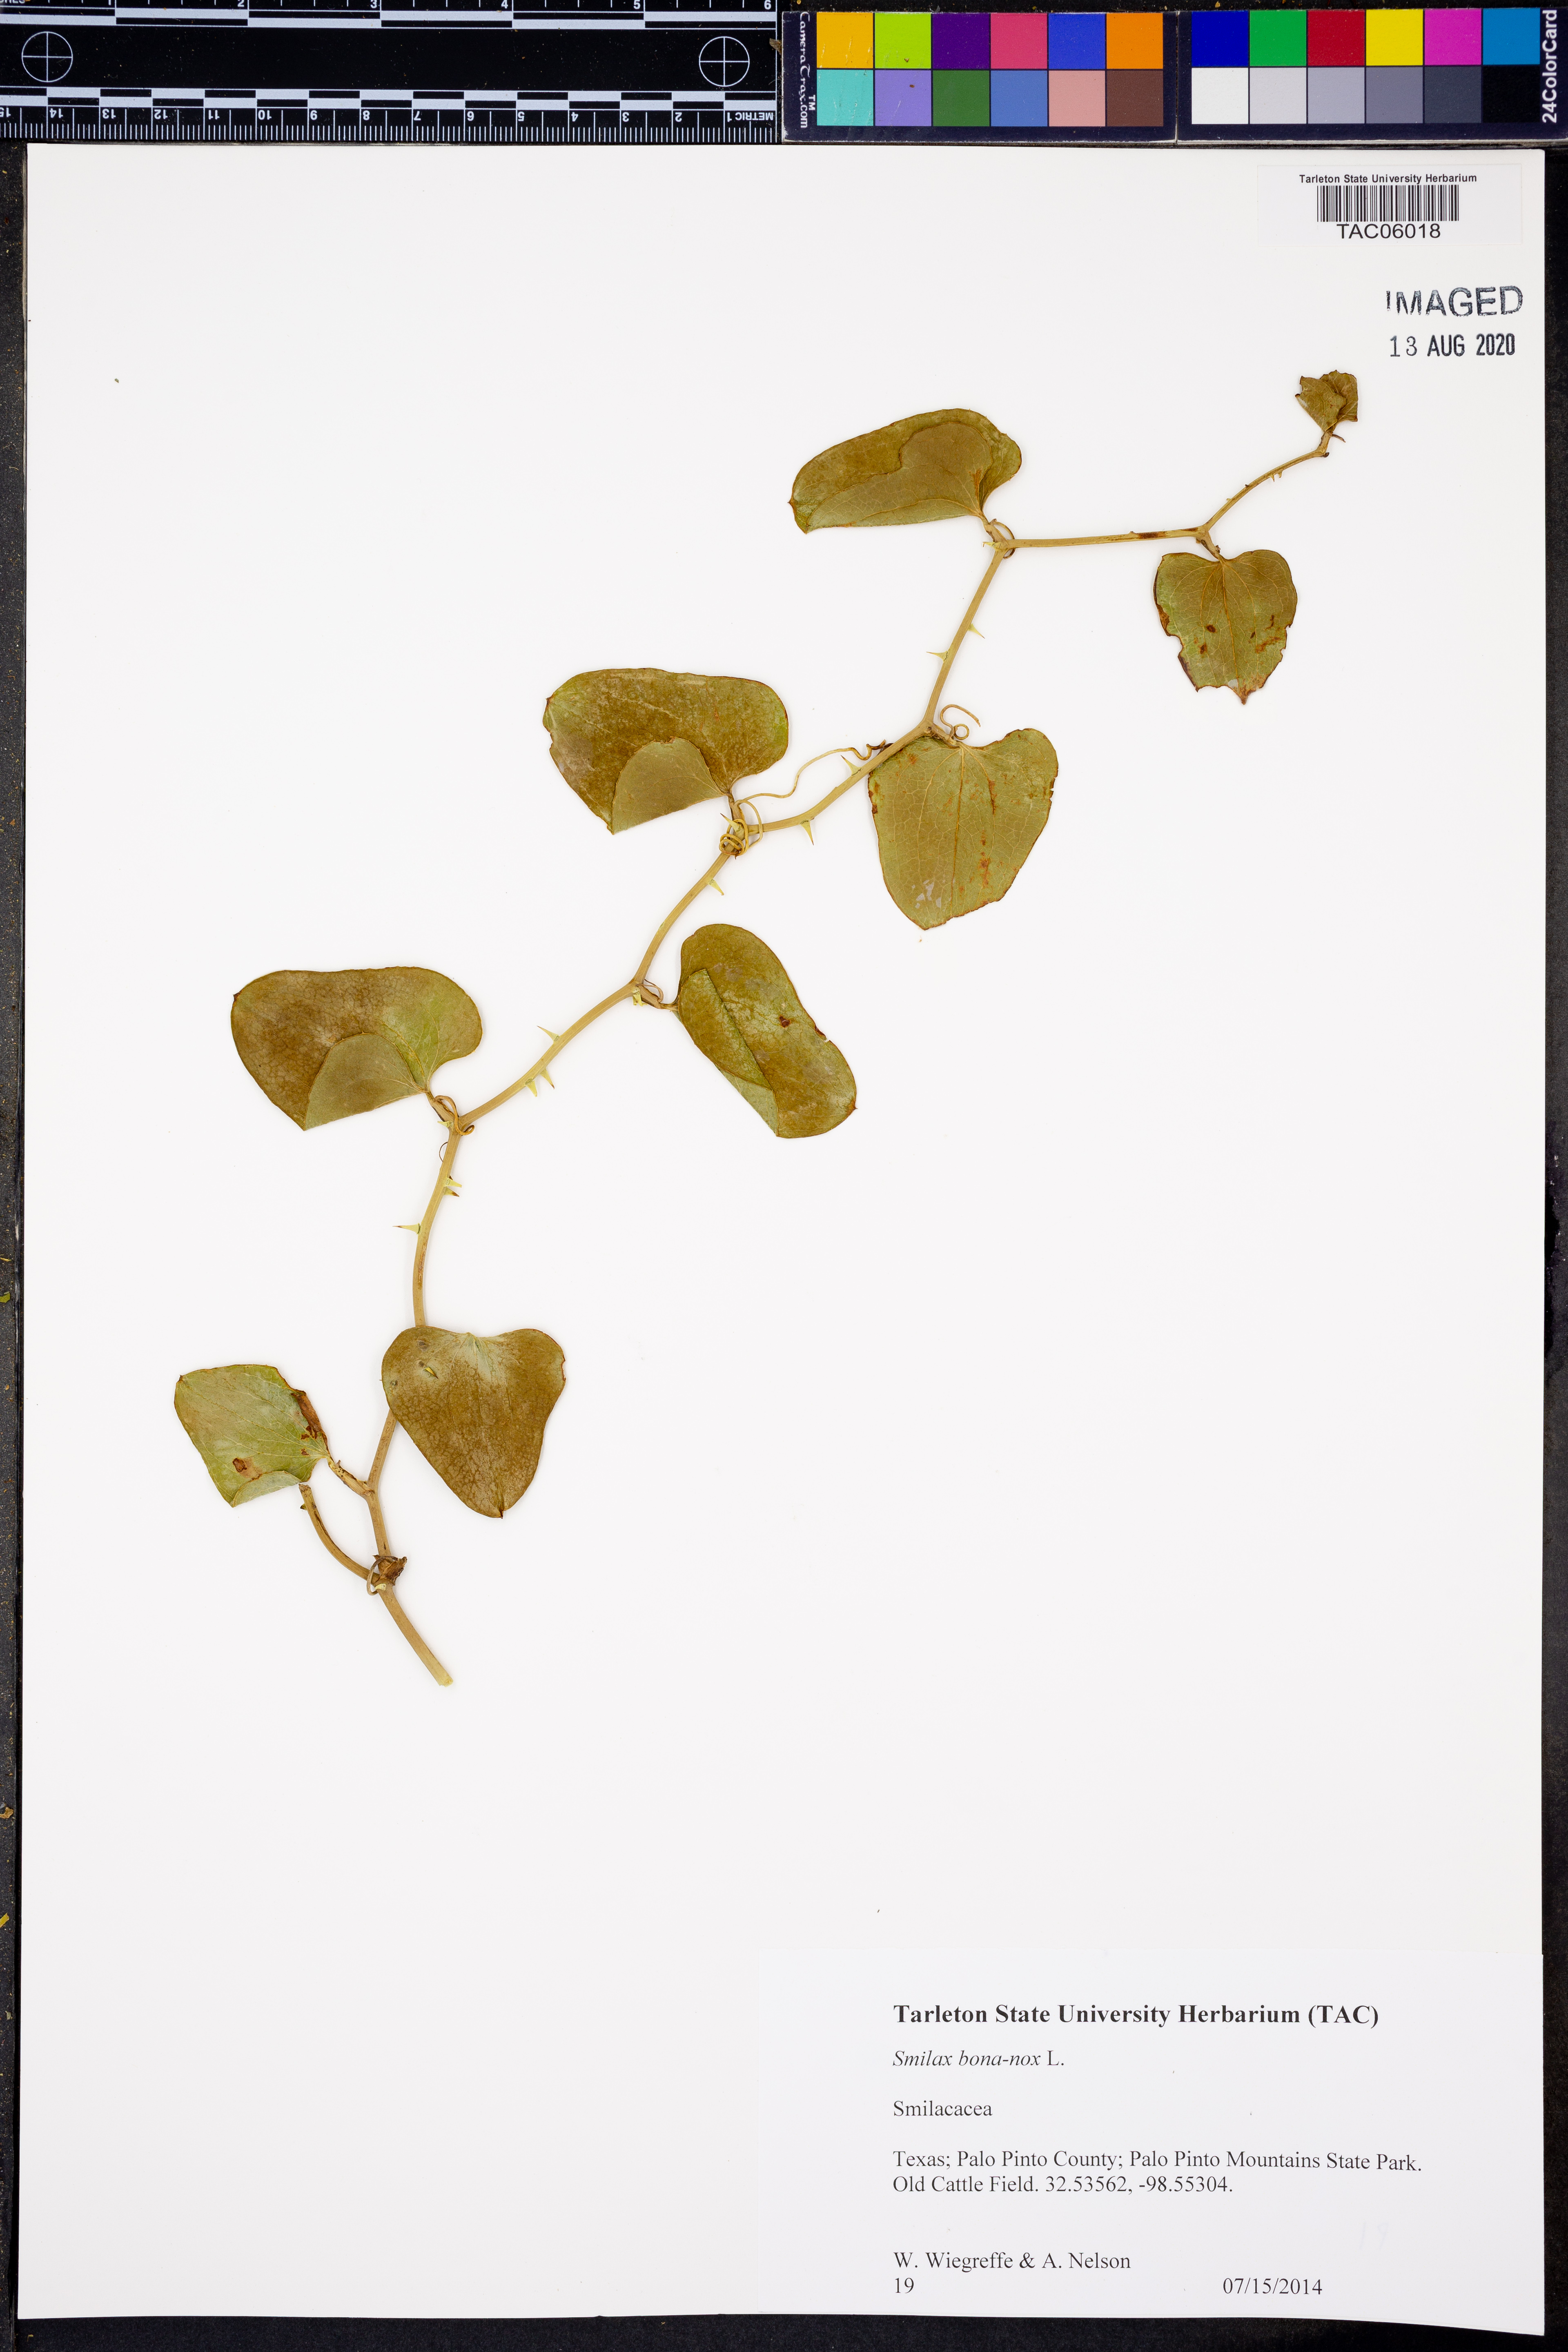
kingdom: Plantae
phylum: Tracheophyta
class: Liliopsida
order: Liliales
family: Smilacaceae
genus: Smilax
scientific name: Smilax bona-nox
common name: Catbrier
